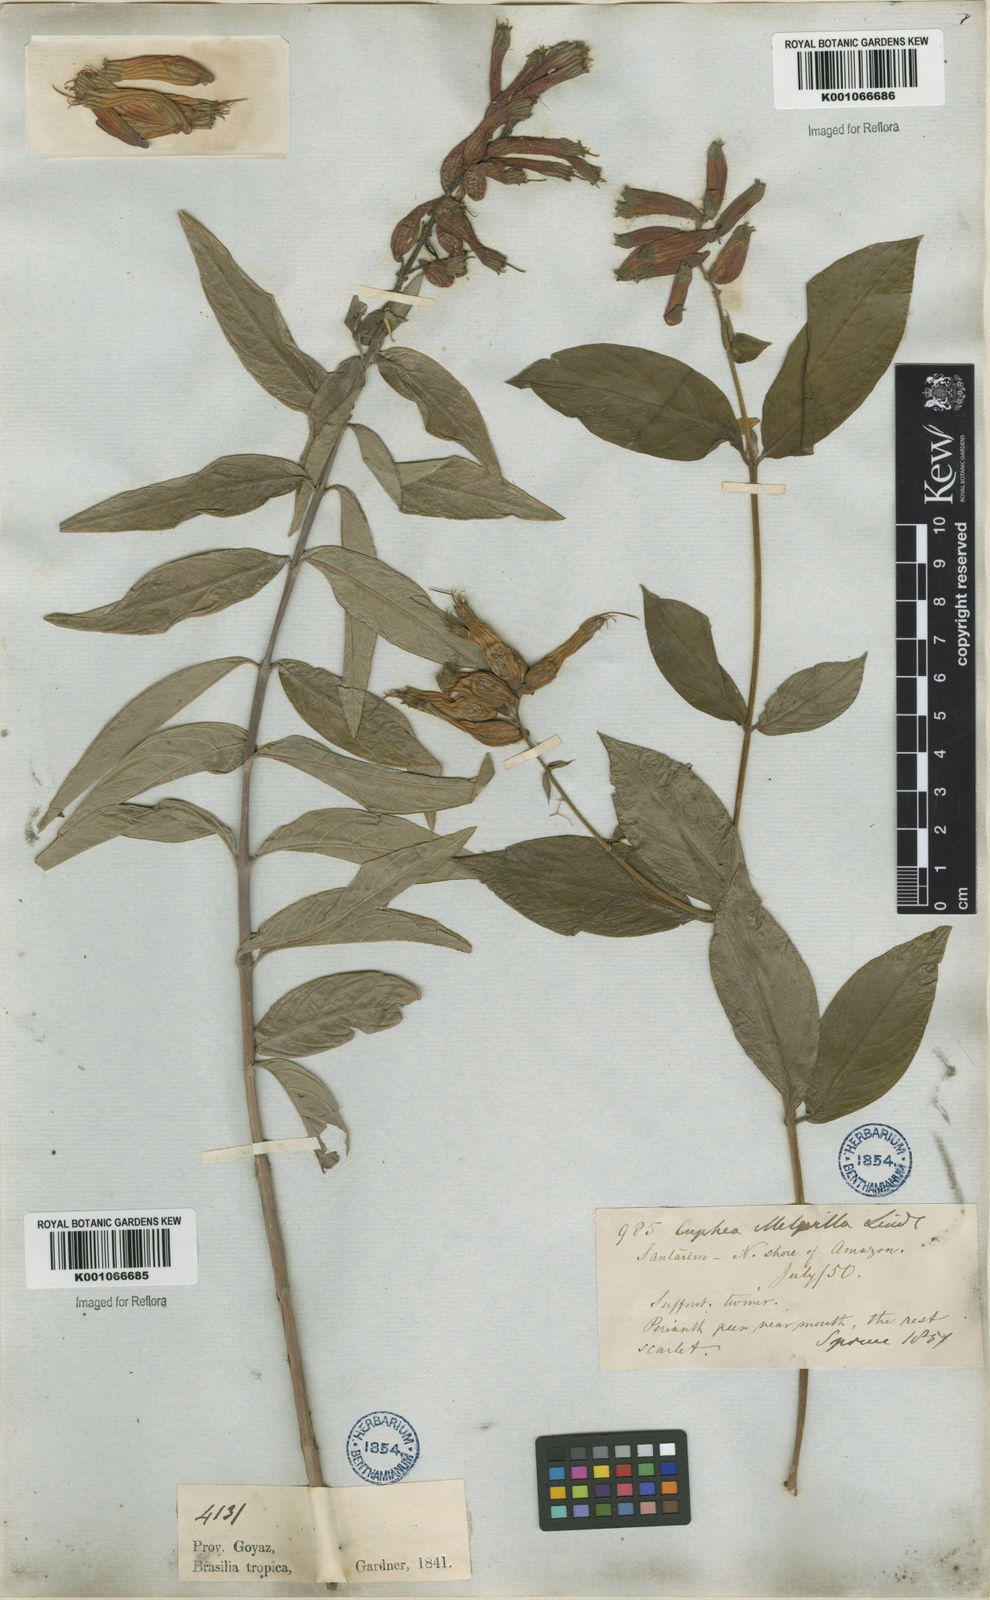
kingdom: Plantae
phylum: Tracheophyta
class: Magnoliopsida
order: Myrtales
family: Lythraceae
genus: Cuphea
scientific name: Cuphea melvilla
